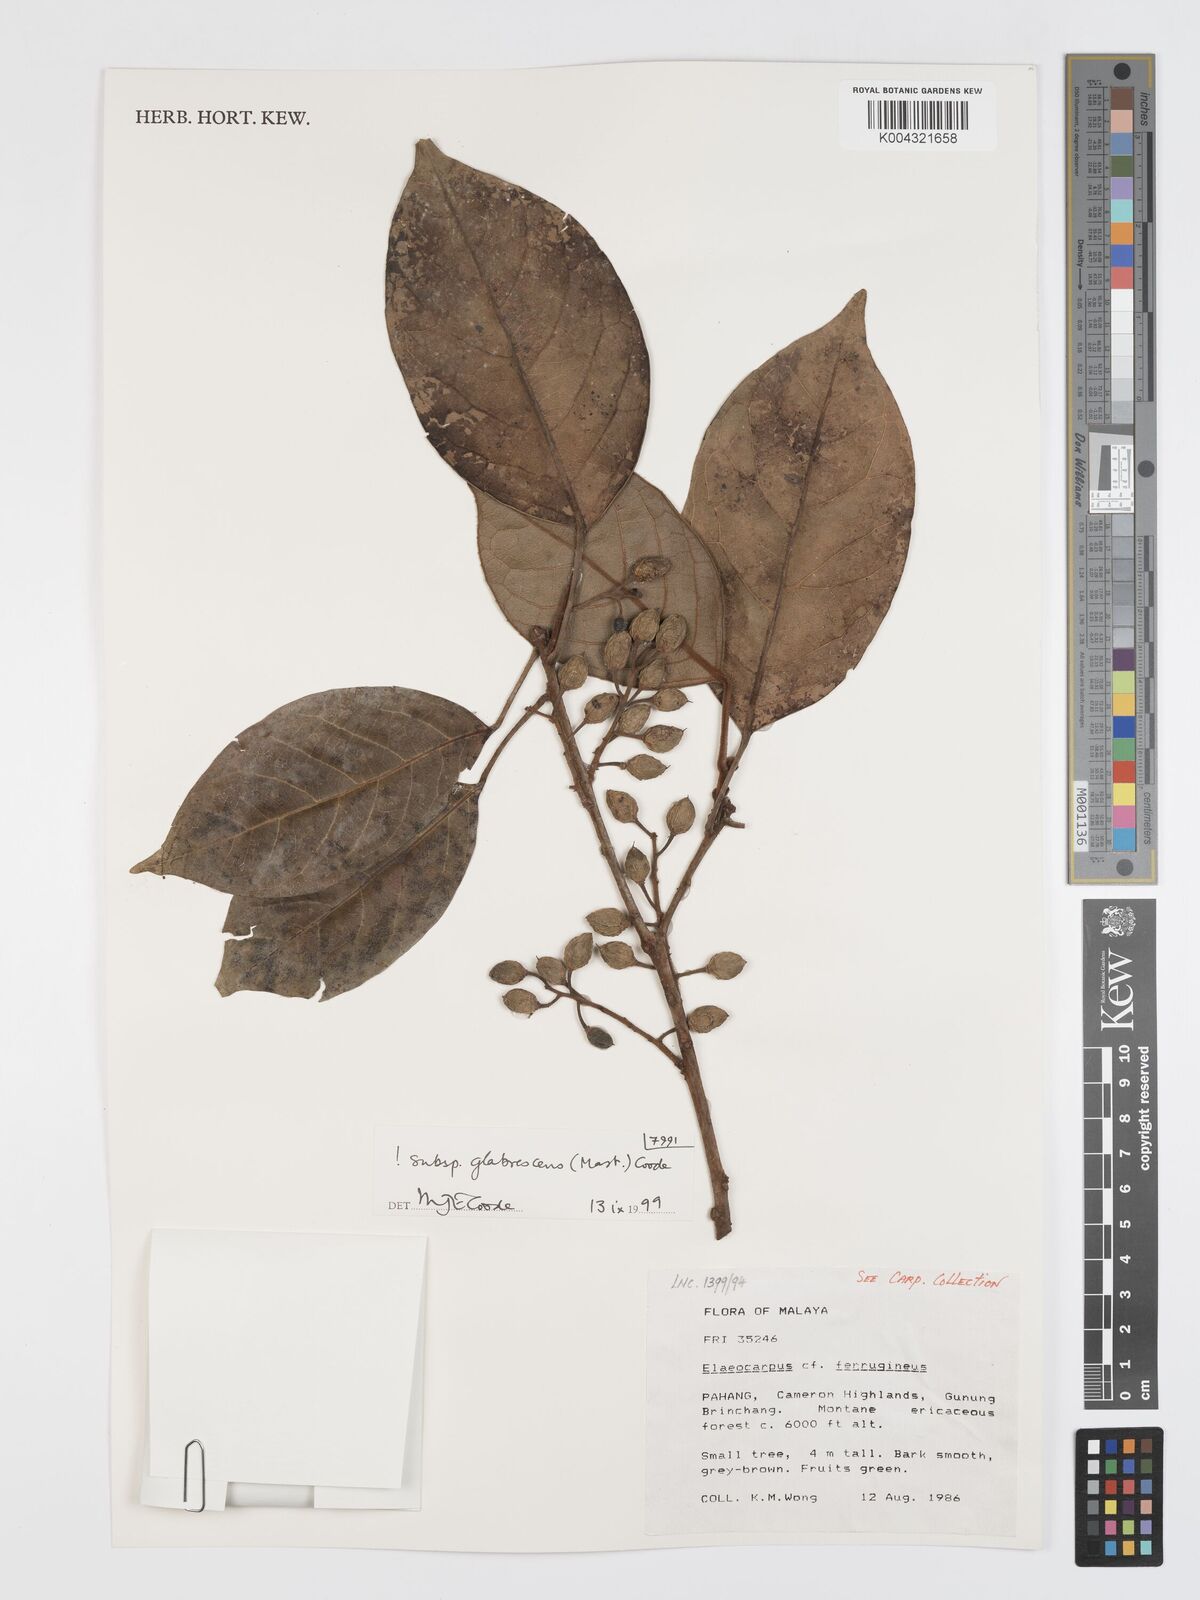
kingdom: Plantae
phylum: Tracheophyta
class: Magnoliopsida
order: Oxalidales
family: Elaeocarpaceae
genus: Elaeocarpus
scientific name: Elaeocarpus ferrugineus
